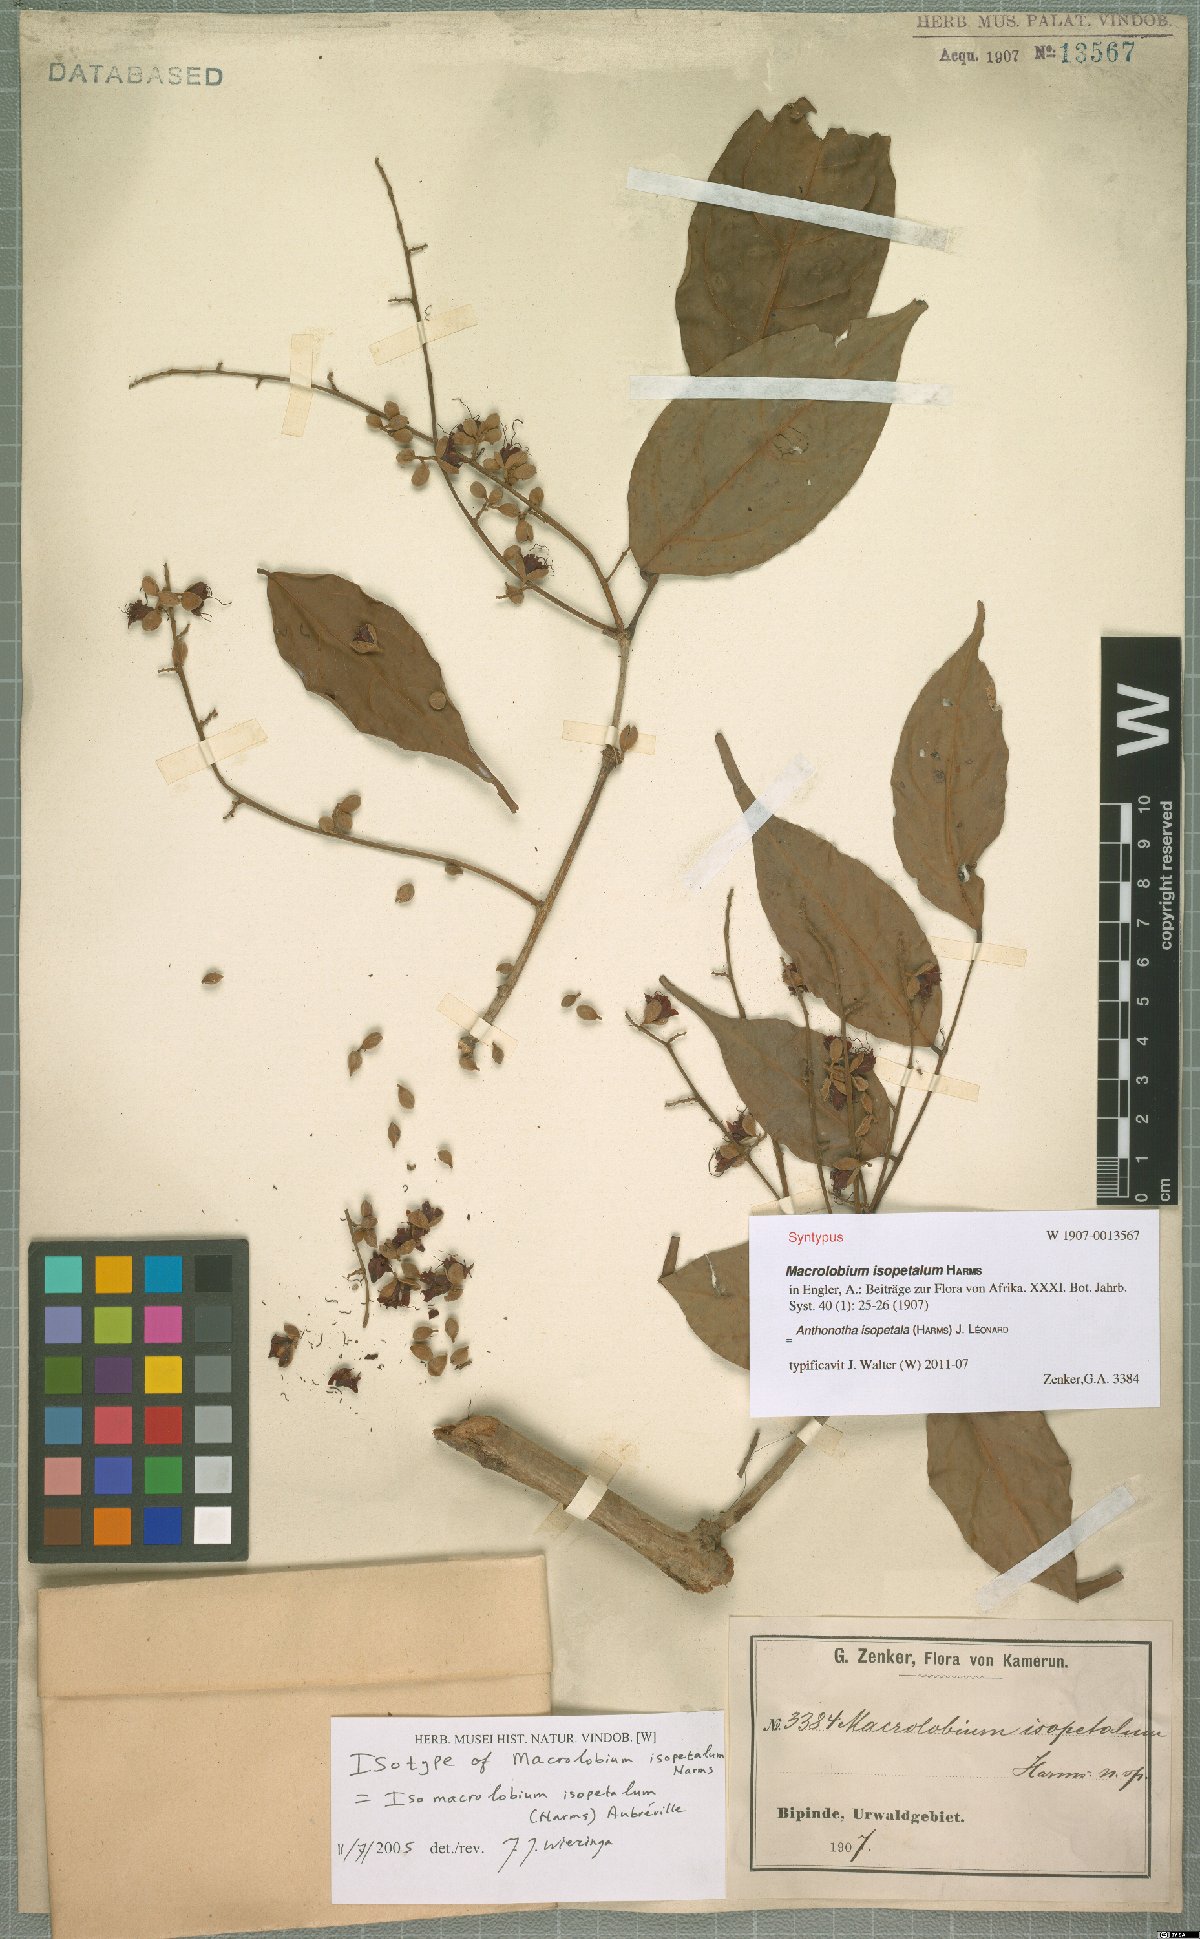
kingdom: Plantae
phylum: Tracheophyta
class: Magnoliopsida
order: Fabales
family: Fabaceae
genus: Englerodendron
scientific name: Englerodendron isopetalum
